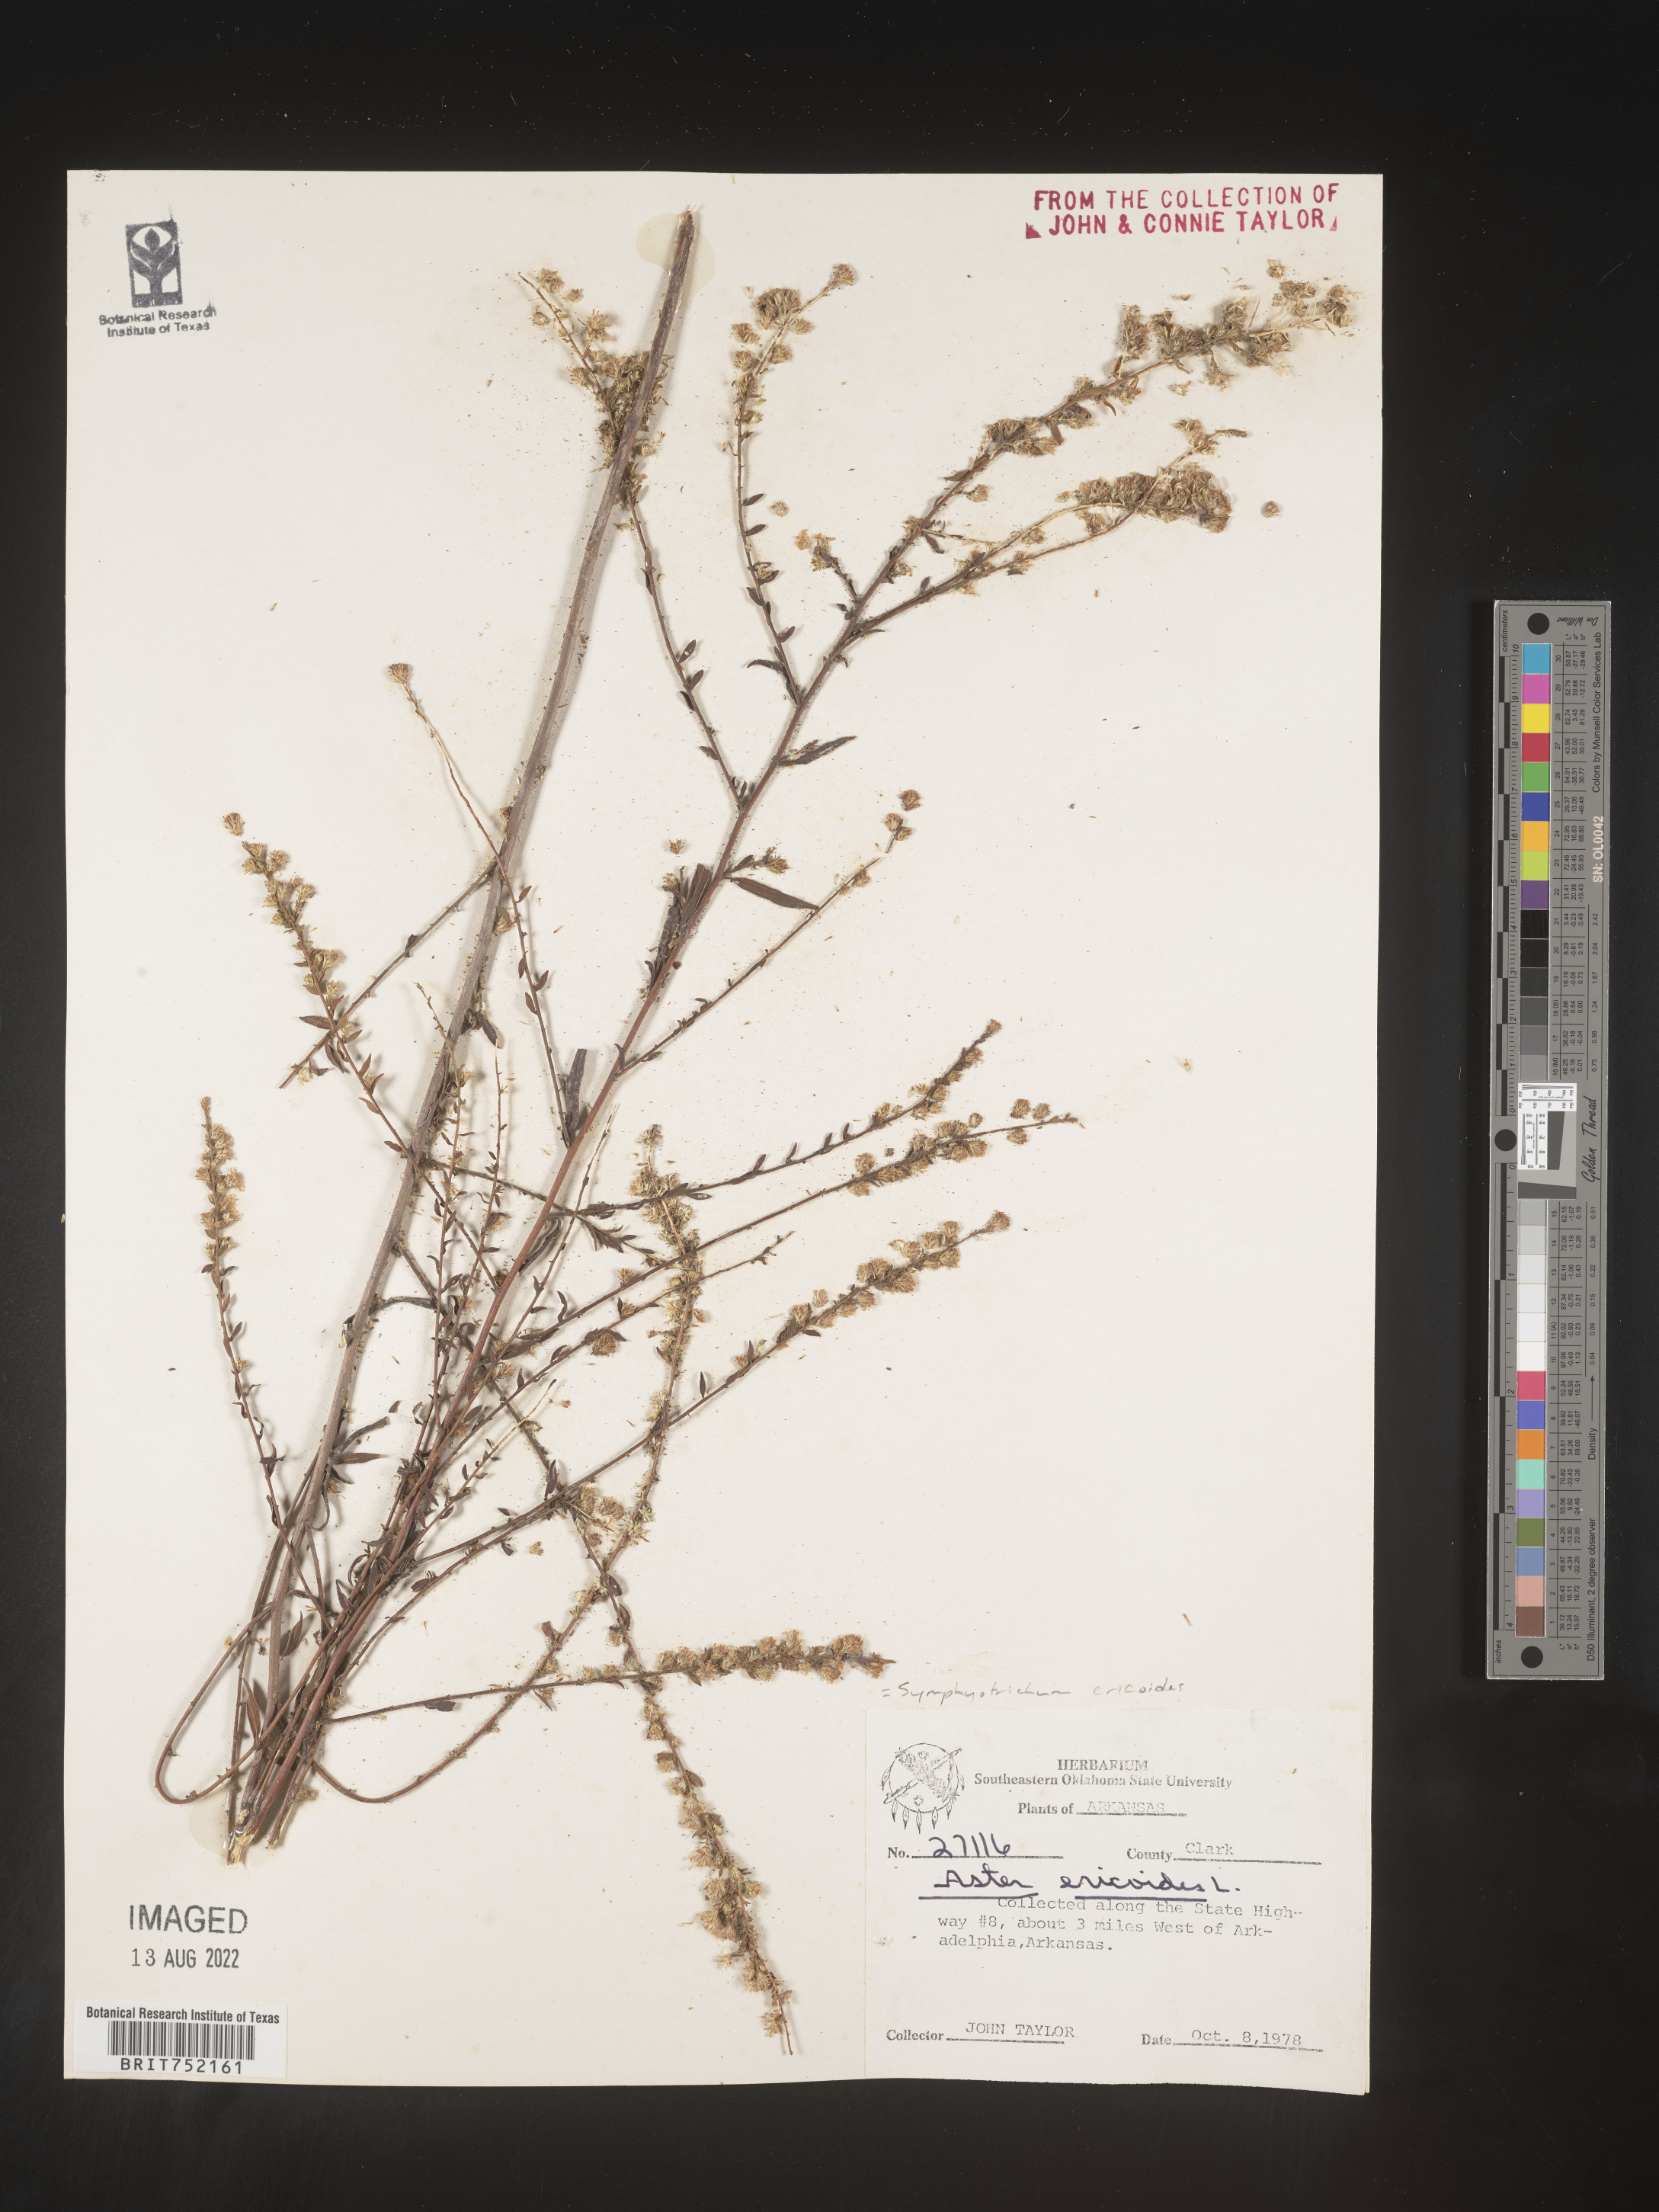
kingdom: Plantae
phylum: Tracheophyta
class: Magnoliopsida
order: Asterales
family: Asteraceae
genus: Symphyotrichum
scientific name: Symphyotrichum ericoides
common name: Heath aster
